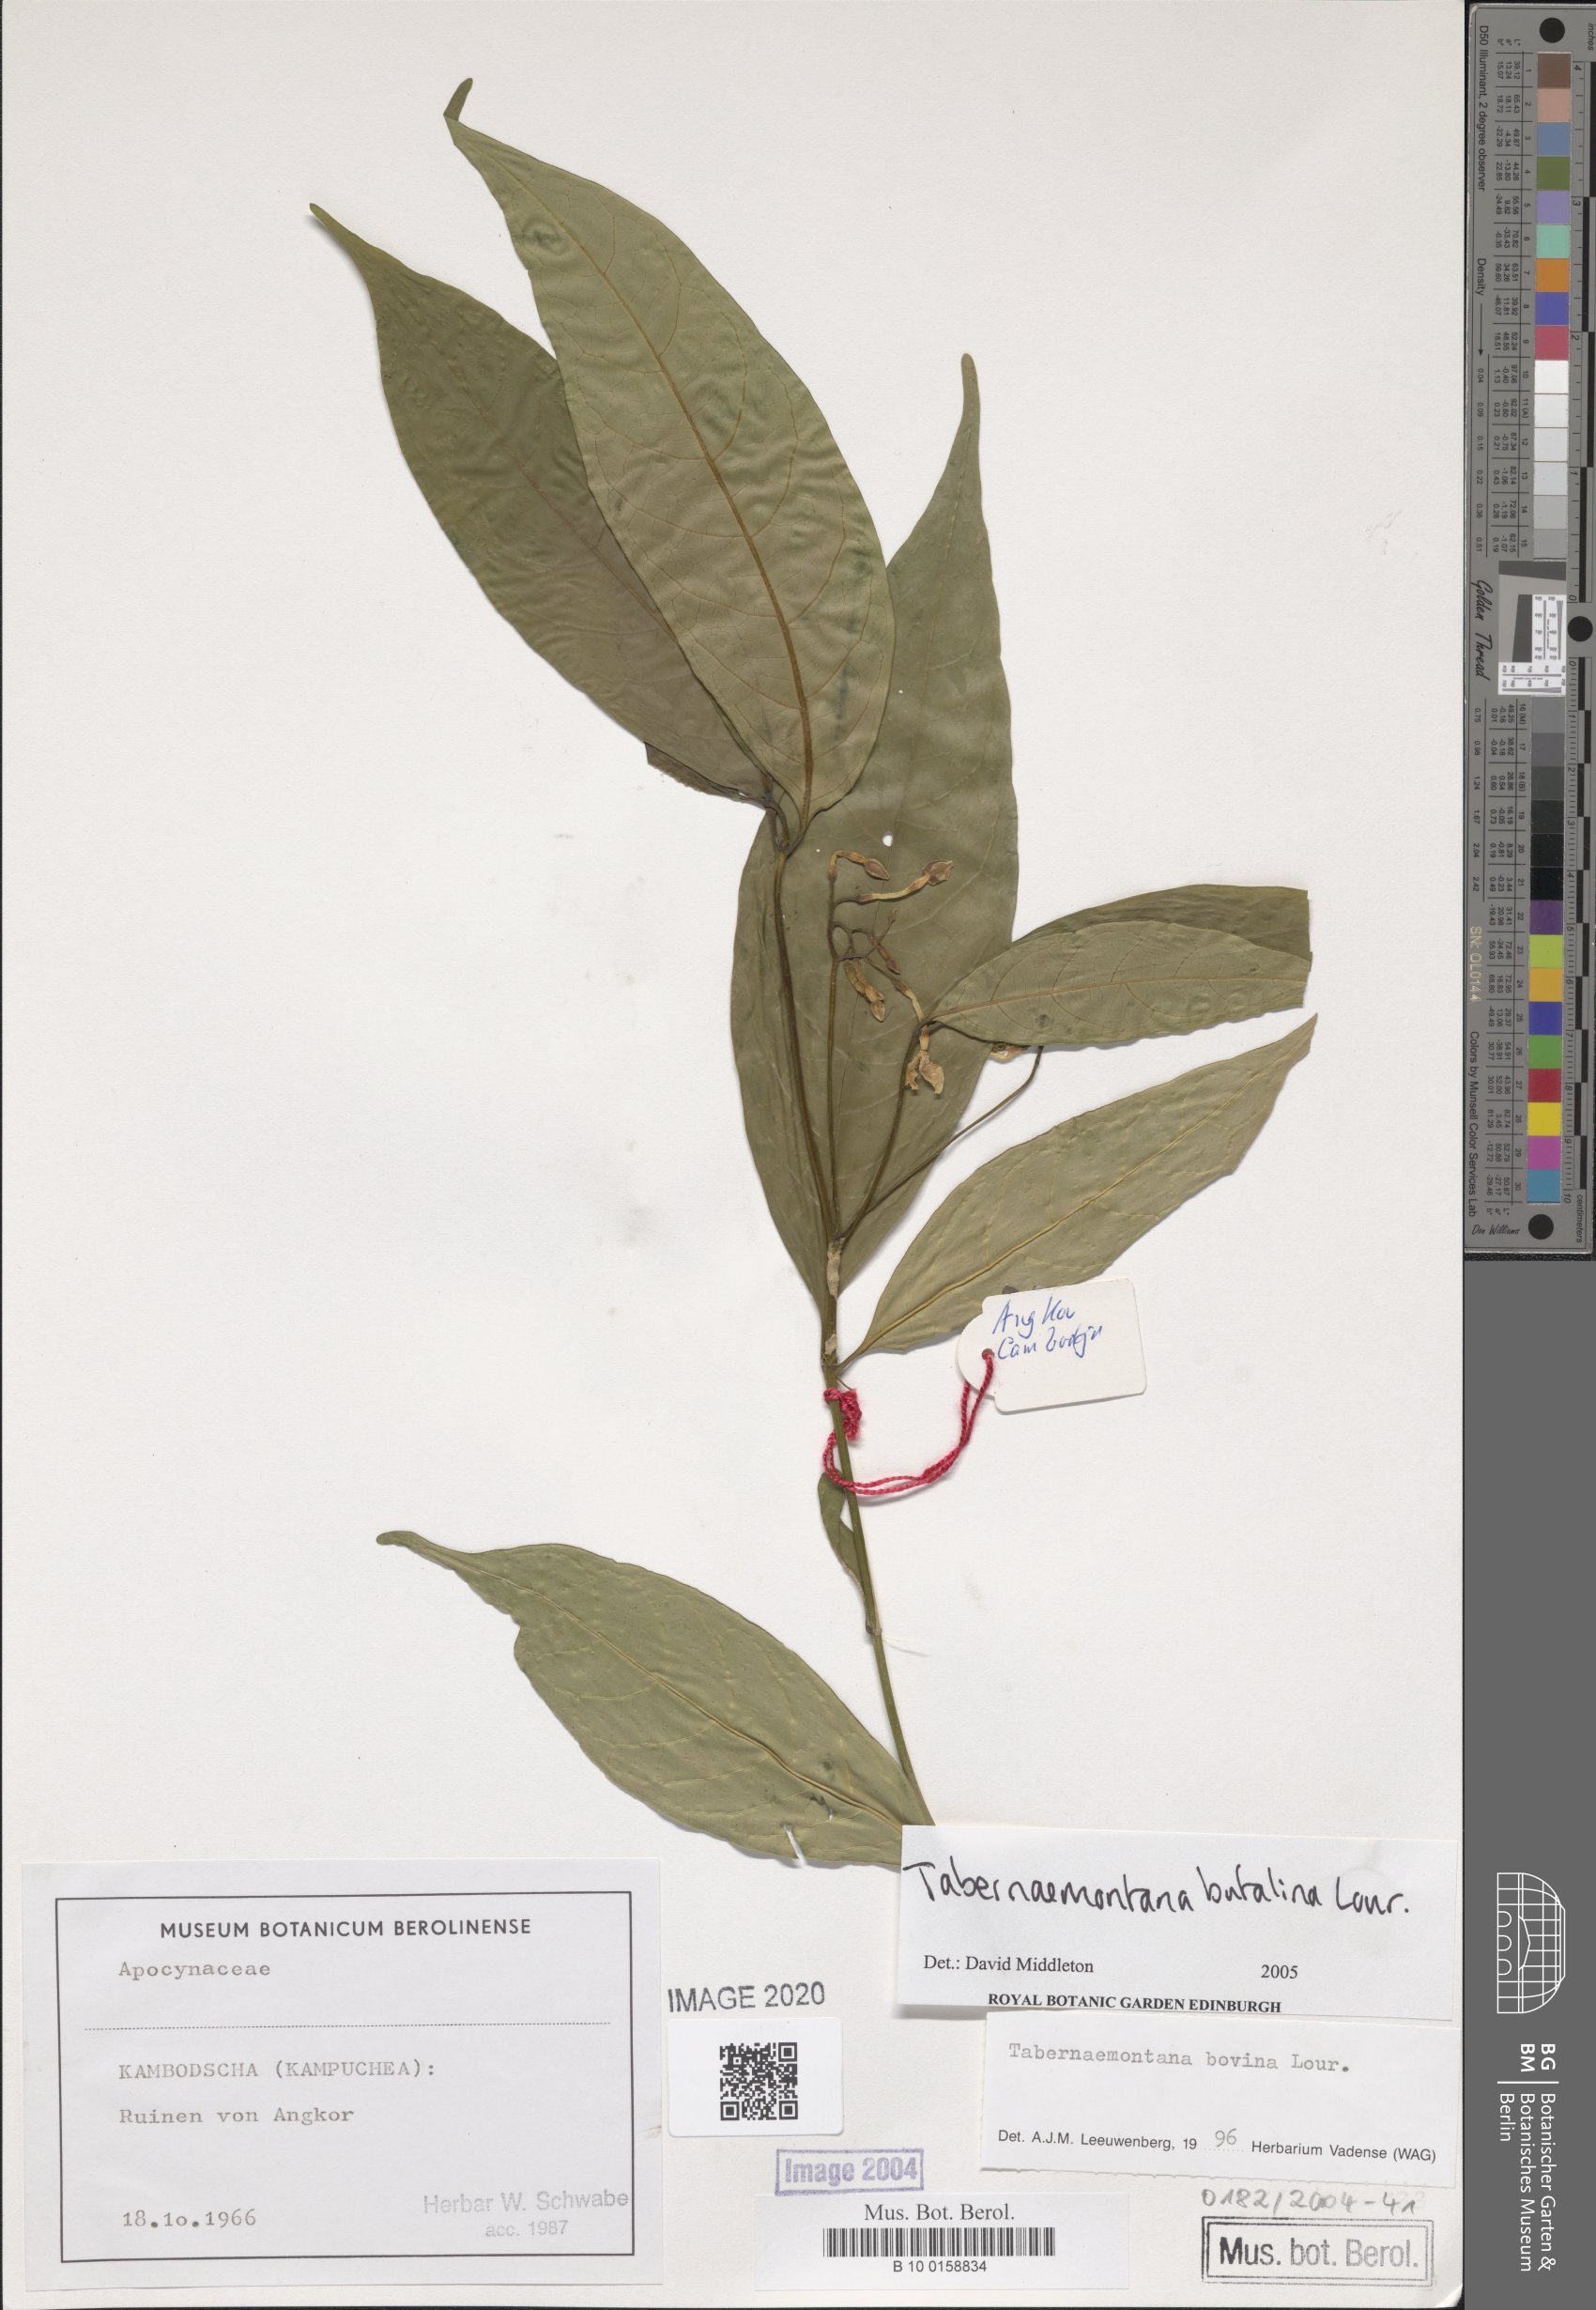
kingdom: Plantae
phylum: Tracheophyta
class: Magnoliopsida
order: Gentianales
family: Apocynaceae
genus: Tabernaemontana
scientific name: Tabernaemontana bovina
